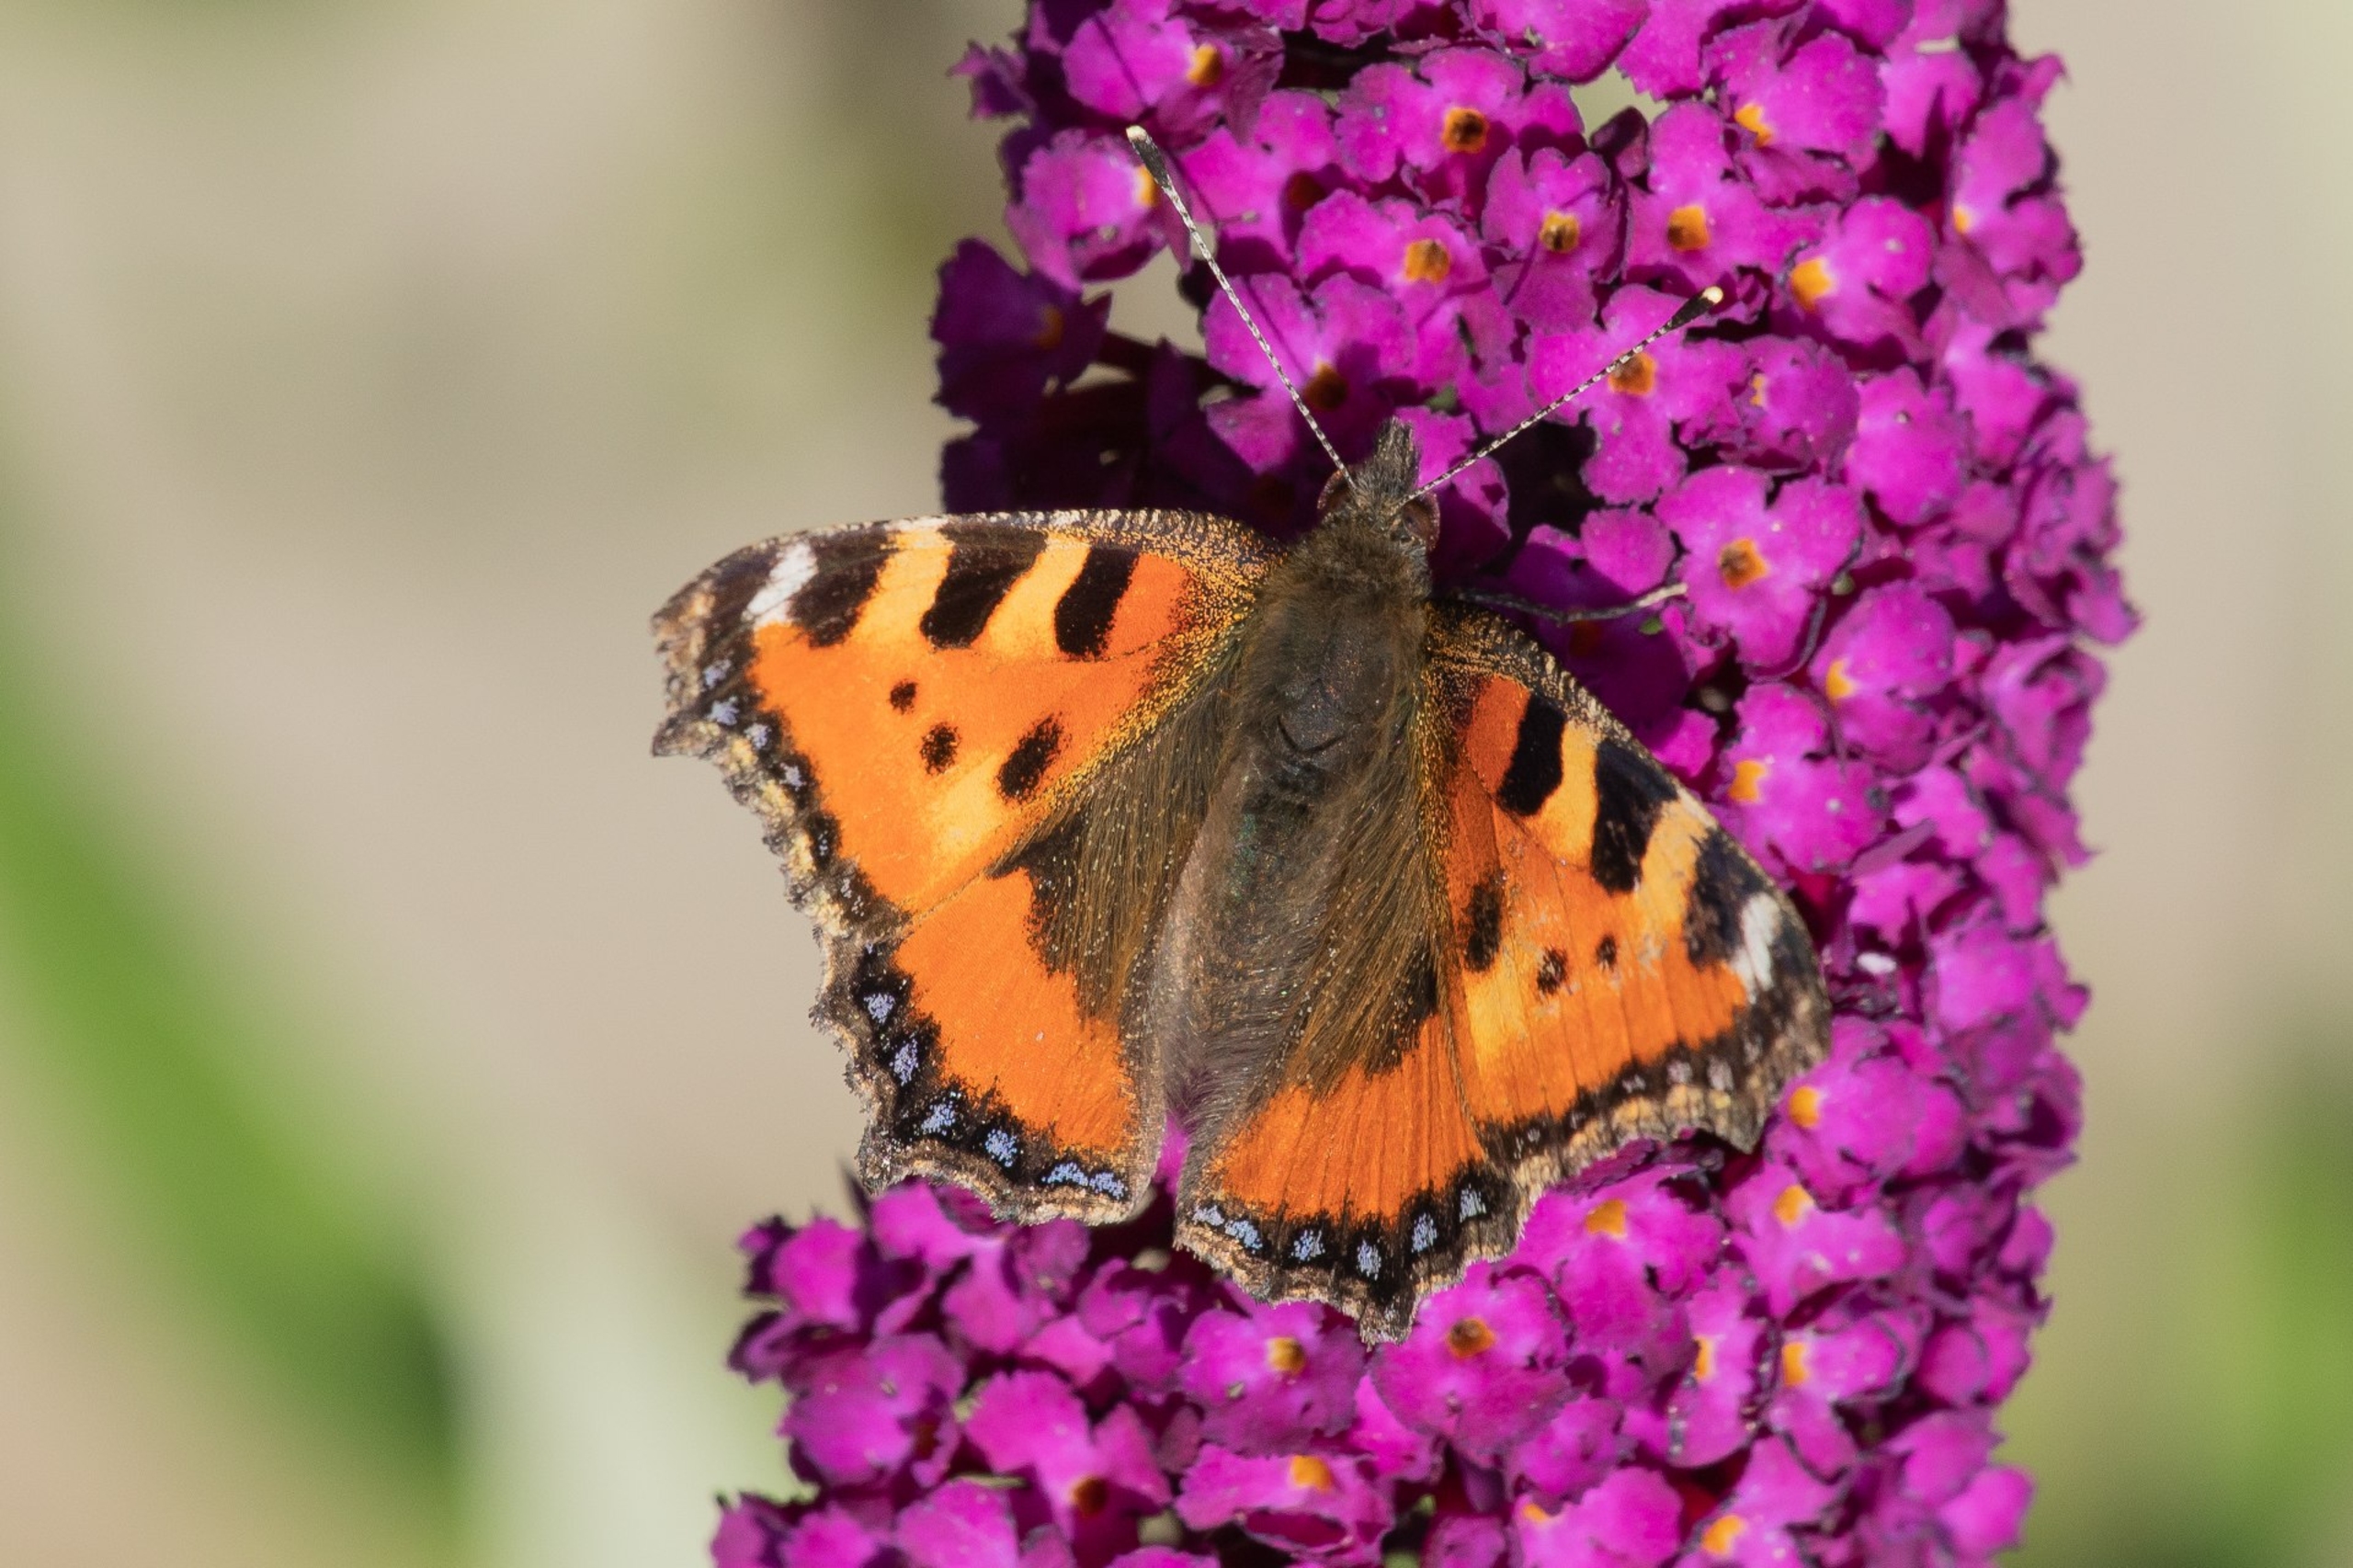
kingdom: Animalia
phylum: Arthropoda
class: Insecta
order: Lepidoptera
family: Nymphalidae
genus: Aglais
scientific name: Aglais urticae
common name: Nældens takvinge
